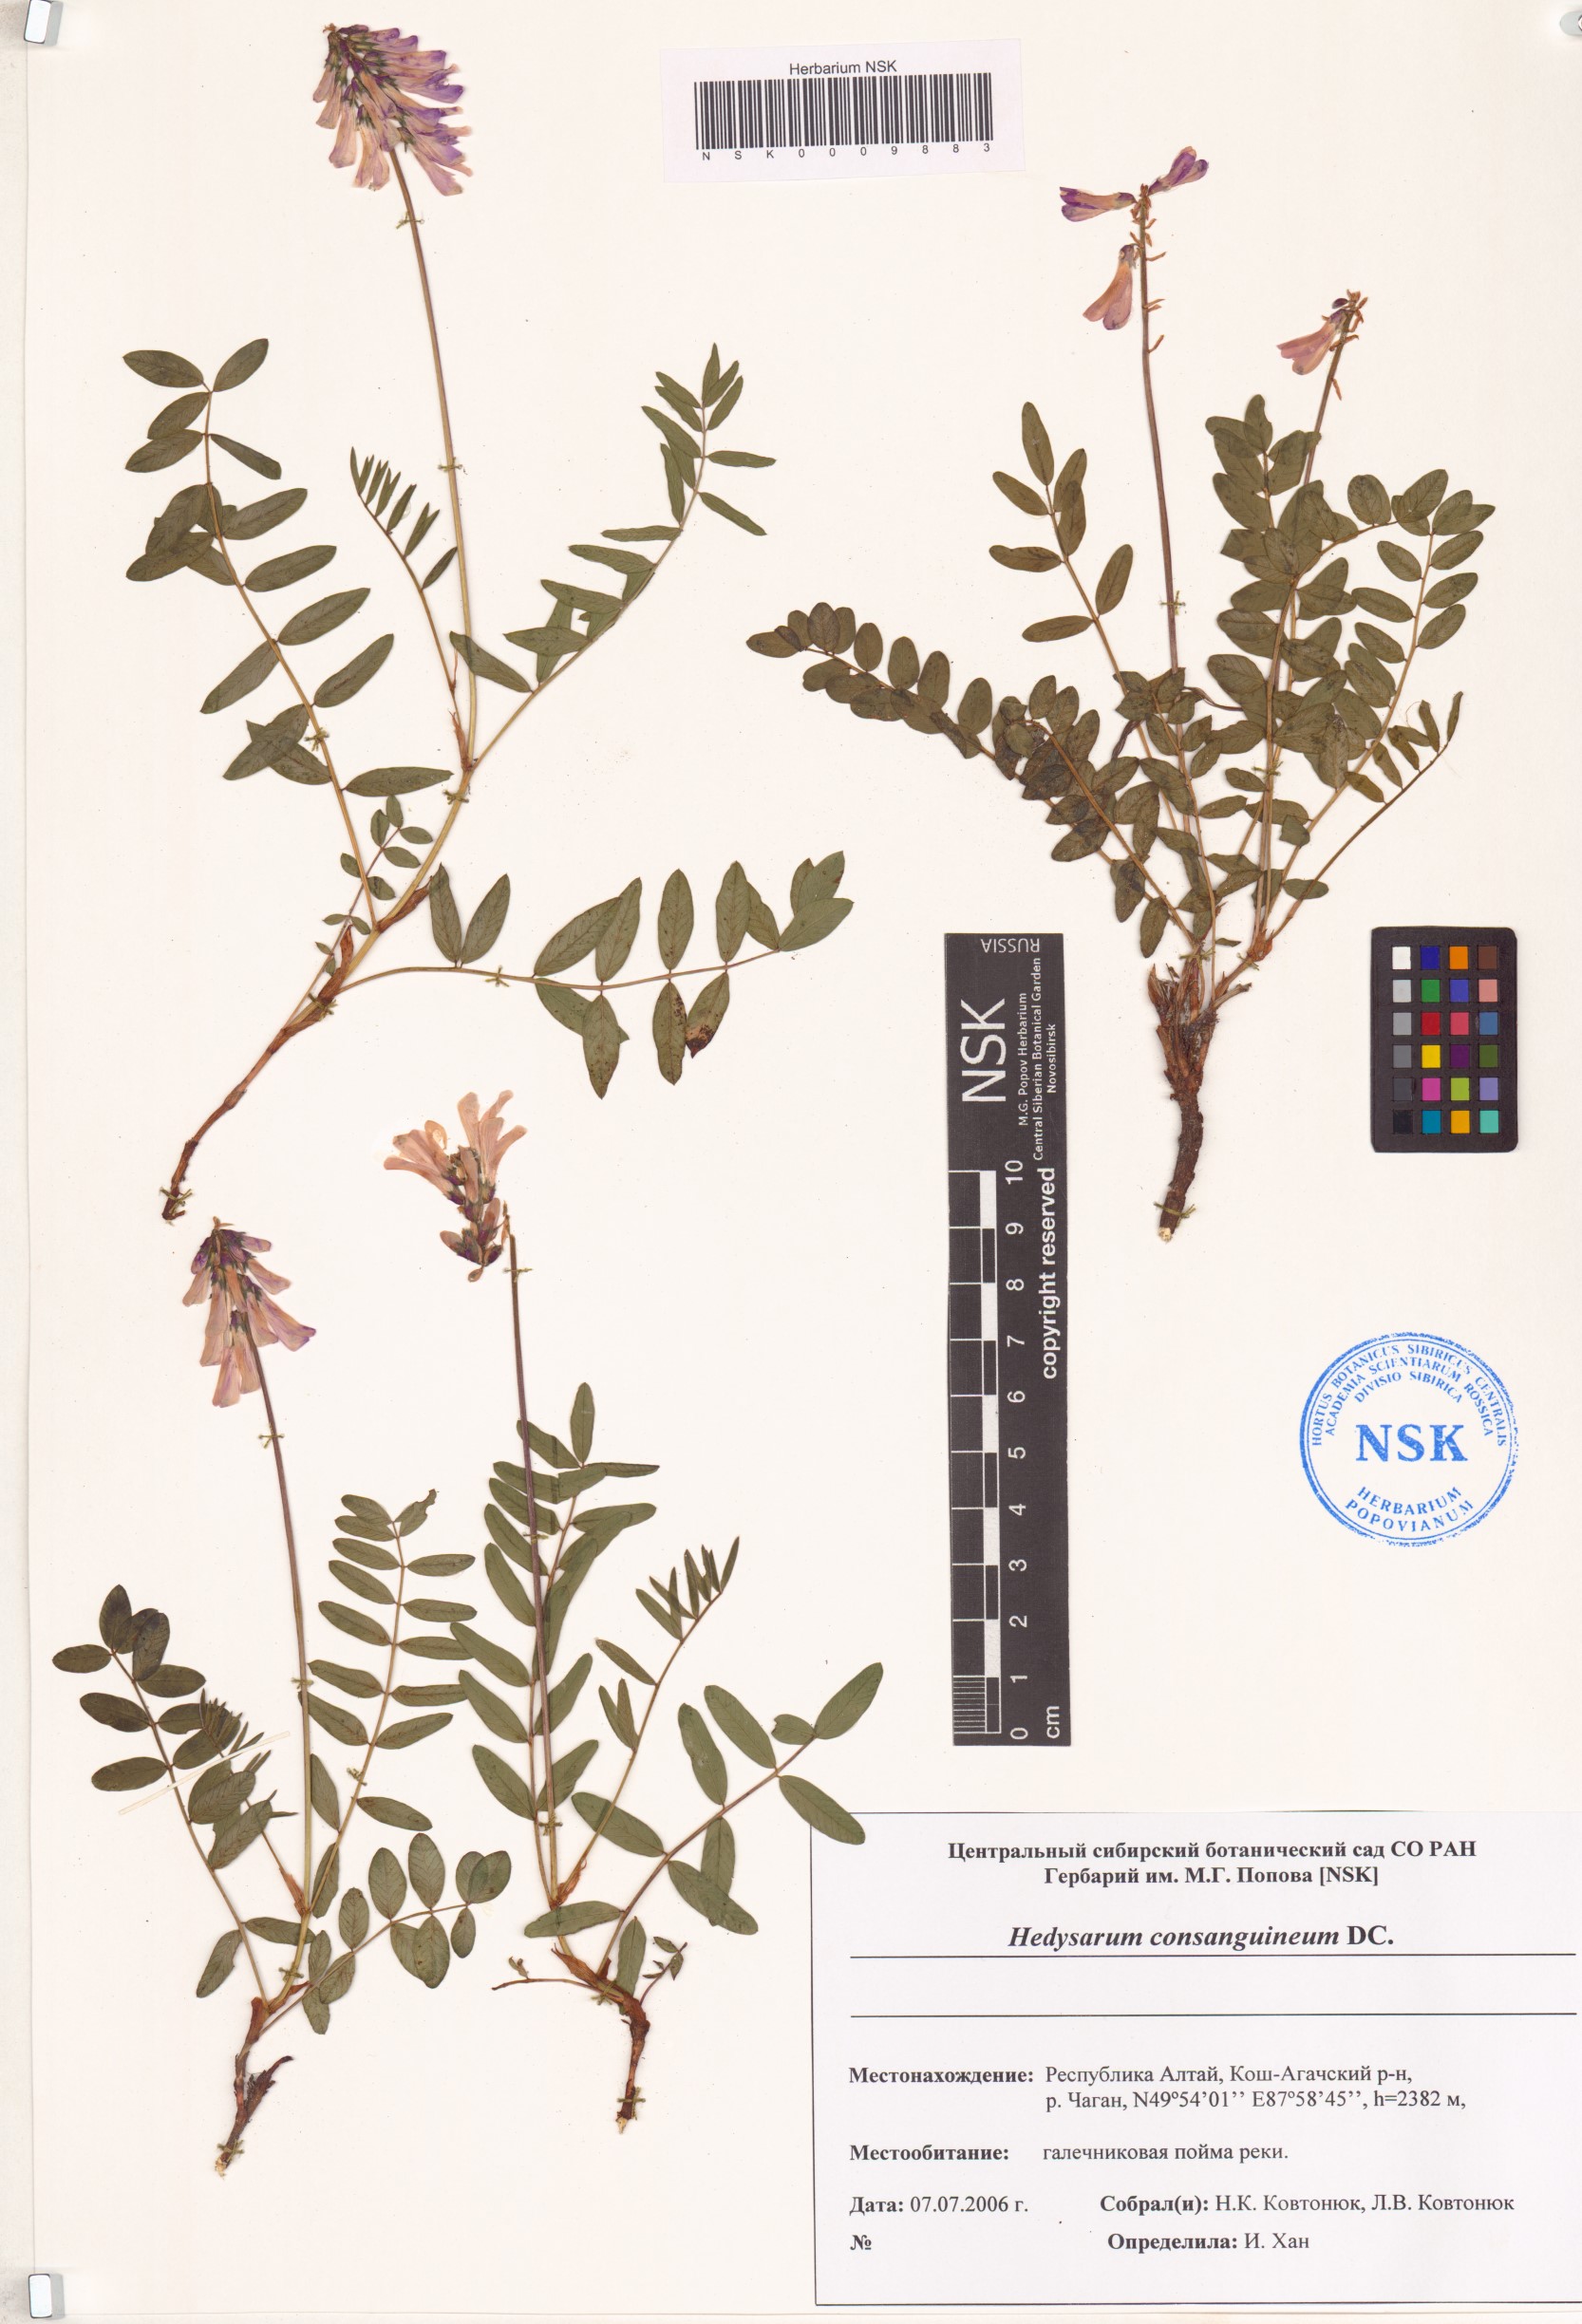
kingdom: Plantae
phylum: Tracheophyta
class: Magnoliopsida
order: Fabales
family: Fabaceae
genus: Hedysarum
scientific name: Hedysarum consanguineum
